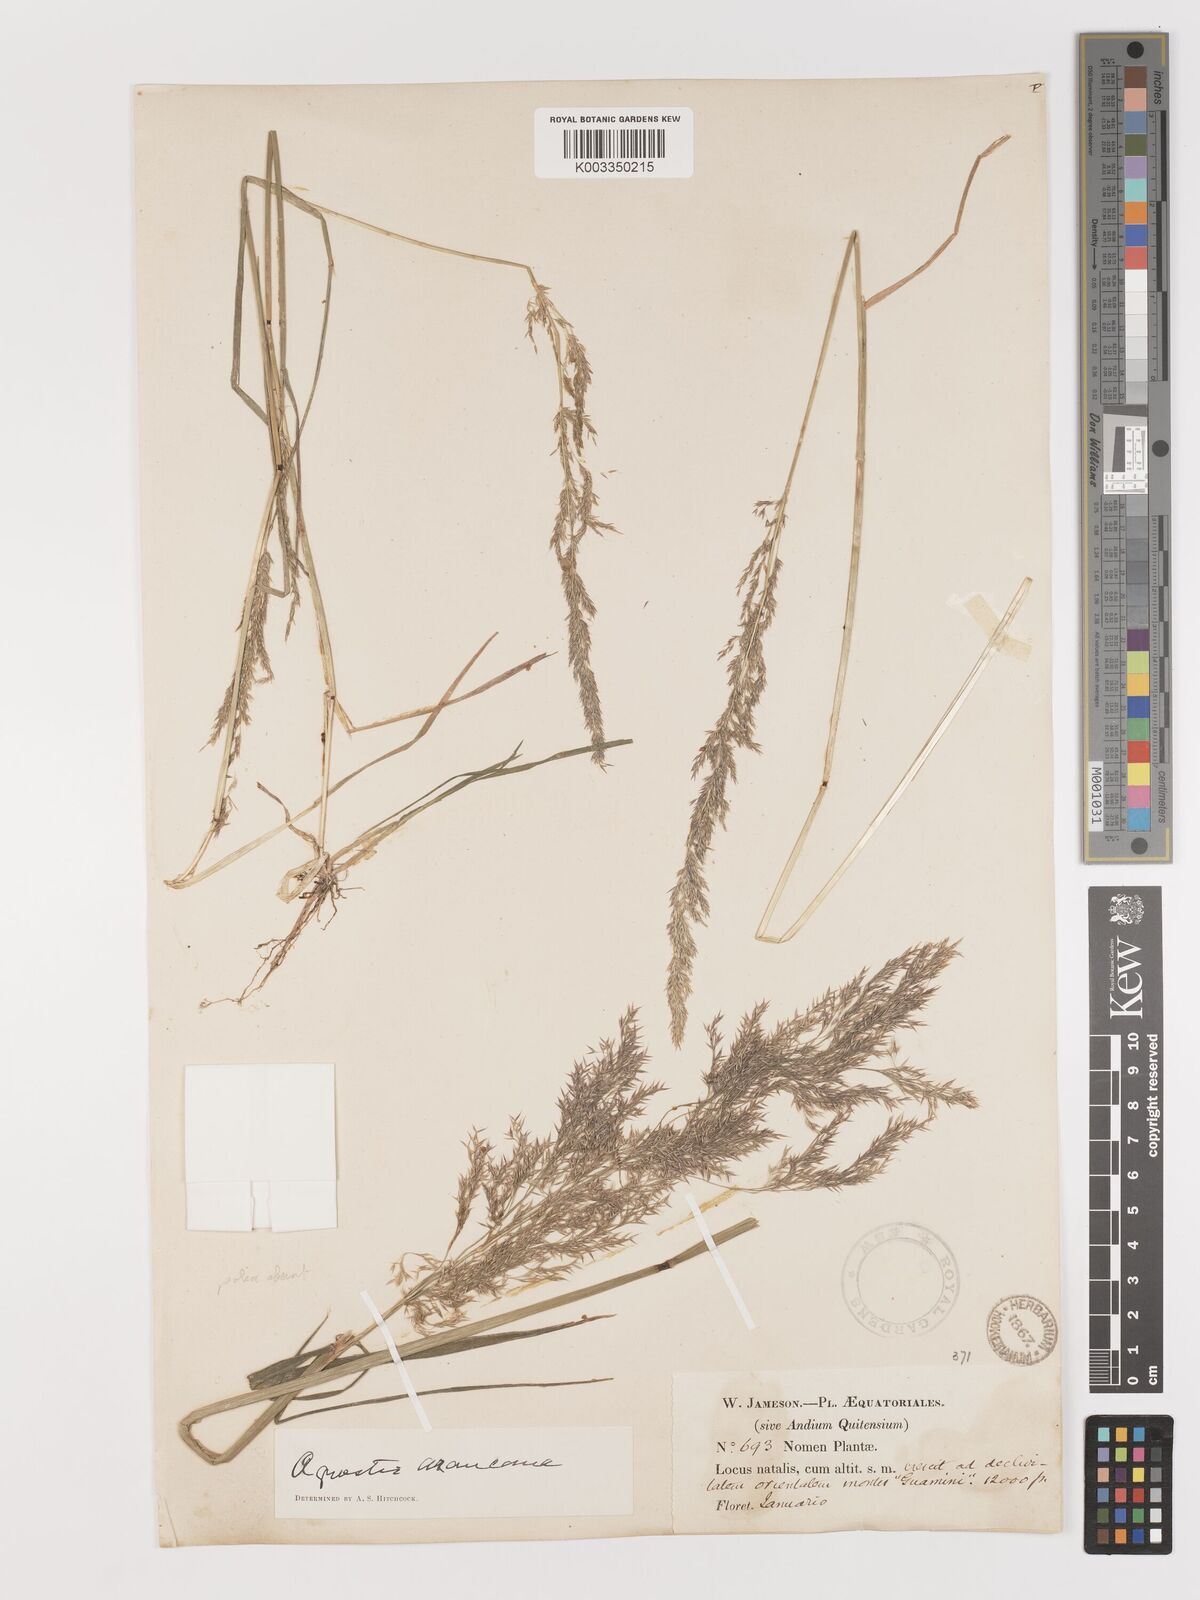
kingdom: Plantae
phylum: Tracheophyta
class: Liliopsida
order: Poales
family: Poaceae
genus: Agrostis
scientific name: Agrostis
